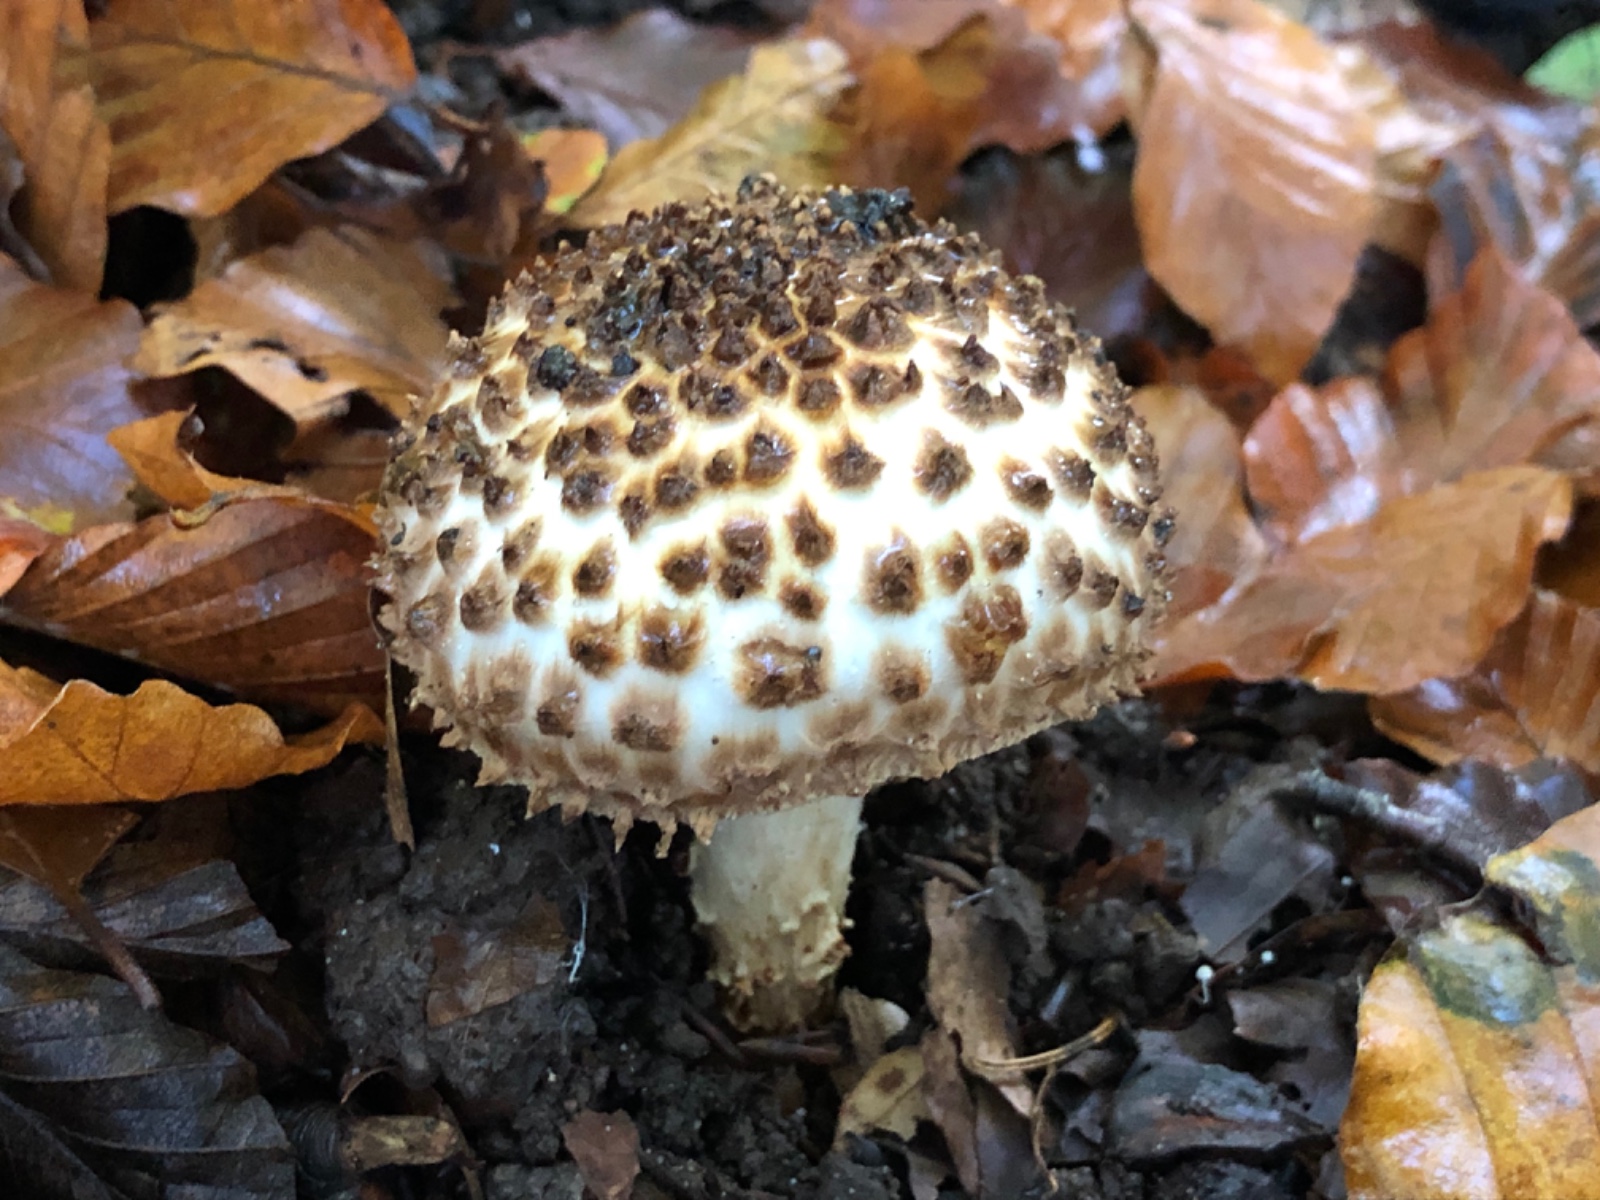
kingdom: Fungi
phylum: Basidiomycota
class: Agaricomycetes
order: Agaricales
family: Agaricaceae
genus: Echinoderma
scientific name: Echinoderma asperum
